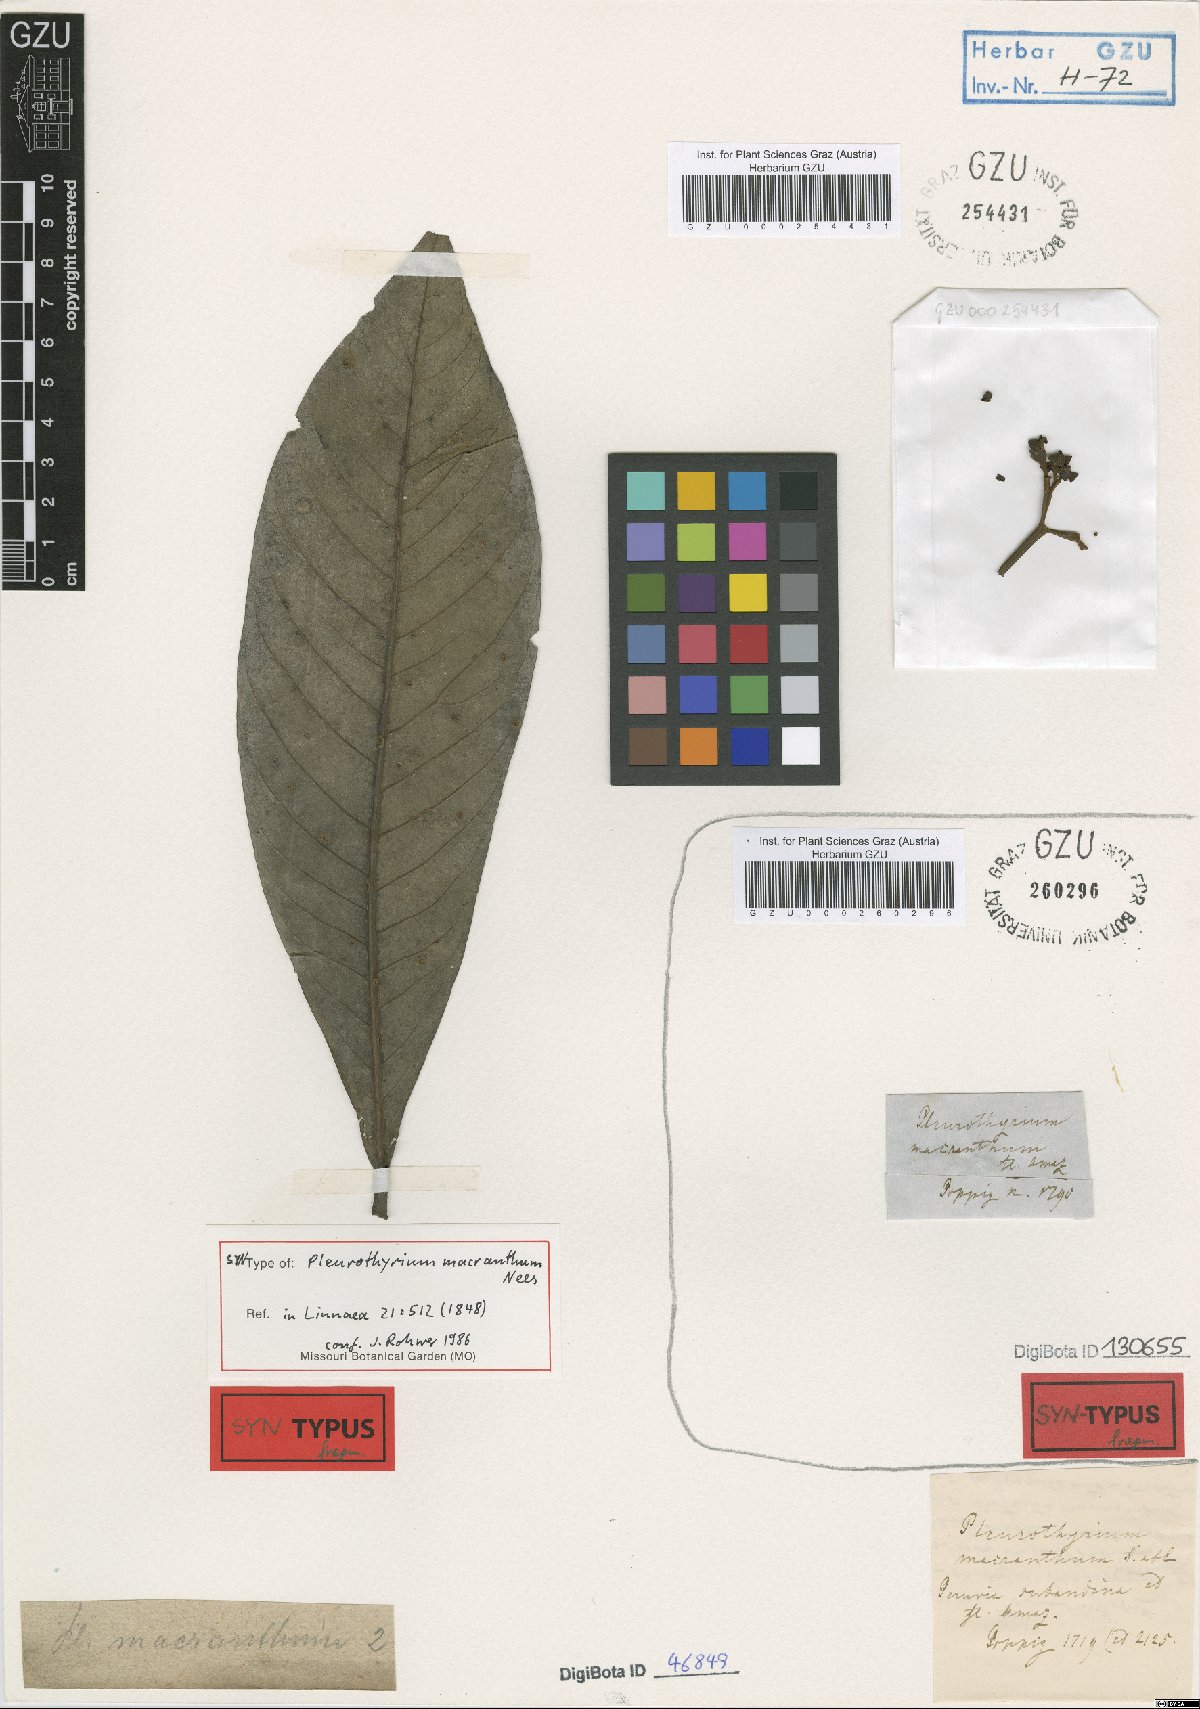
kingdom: Plantae
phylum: Tracheophyta
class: Magnoliopsida
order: Laurales
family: Lauraceae
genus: Pleurothyrium
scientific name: Pleurothyrium cuneifolium
